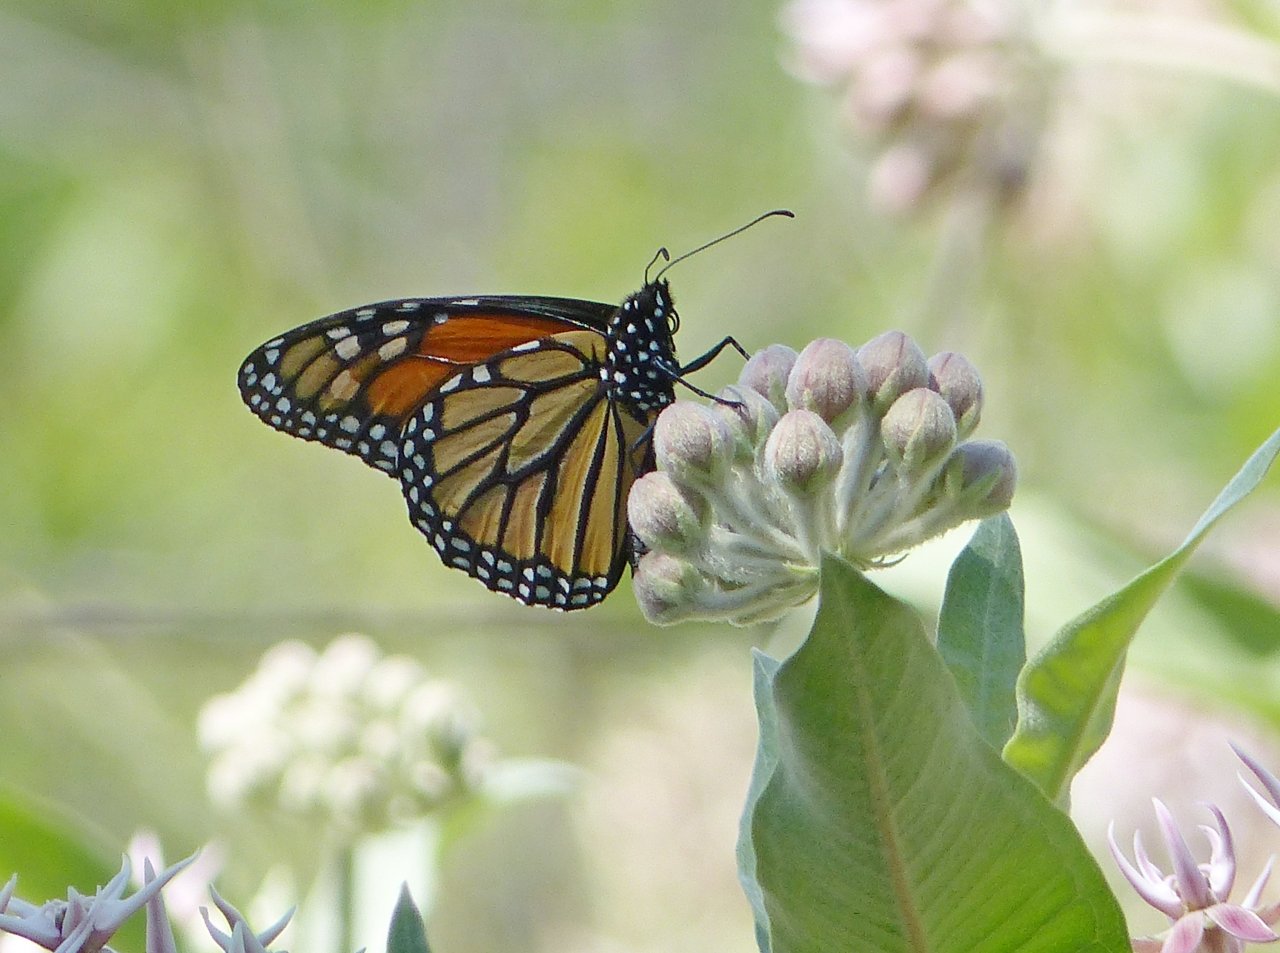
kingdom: Animalia
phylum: Arthropoda
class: Insecta
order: Lepidoptera
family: Nymphalidae
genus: Danaus
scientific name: Danaus plexippus
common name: Monarch
